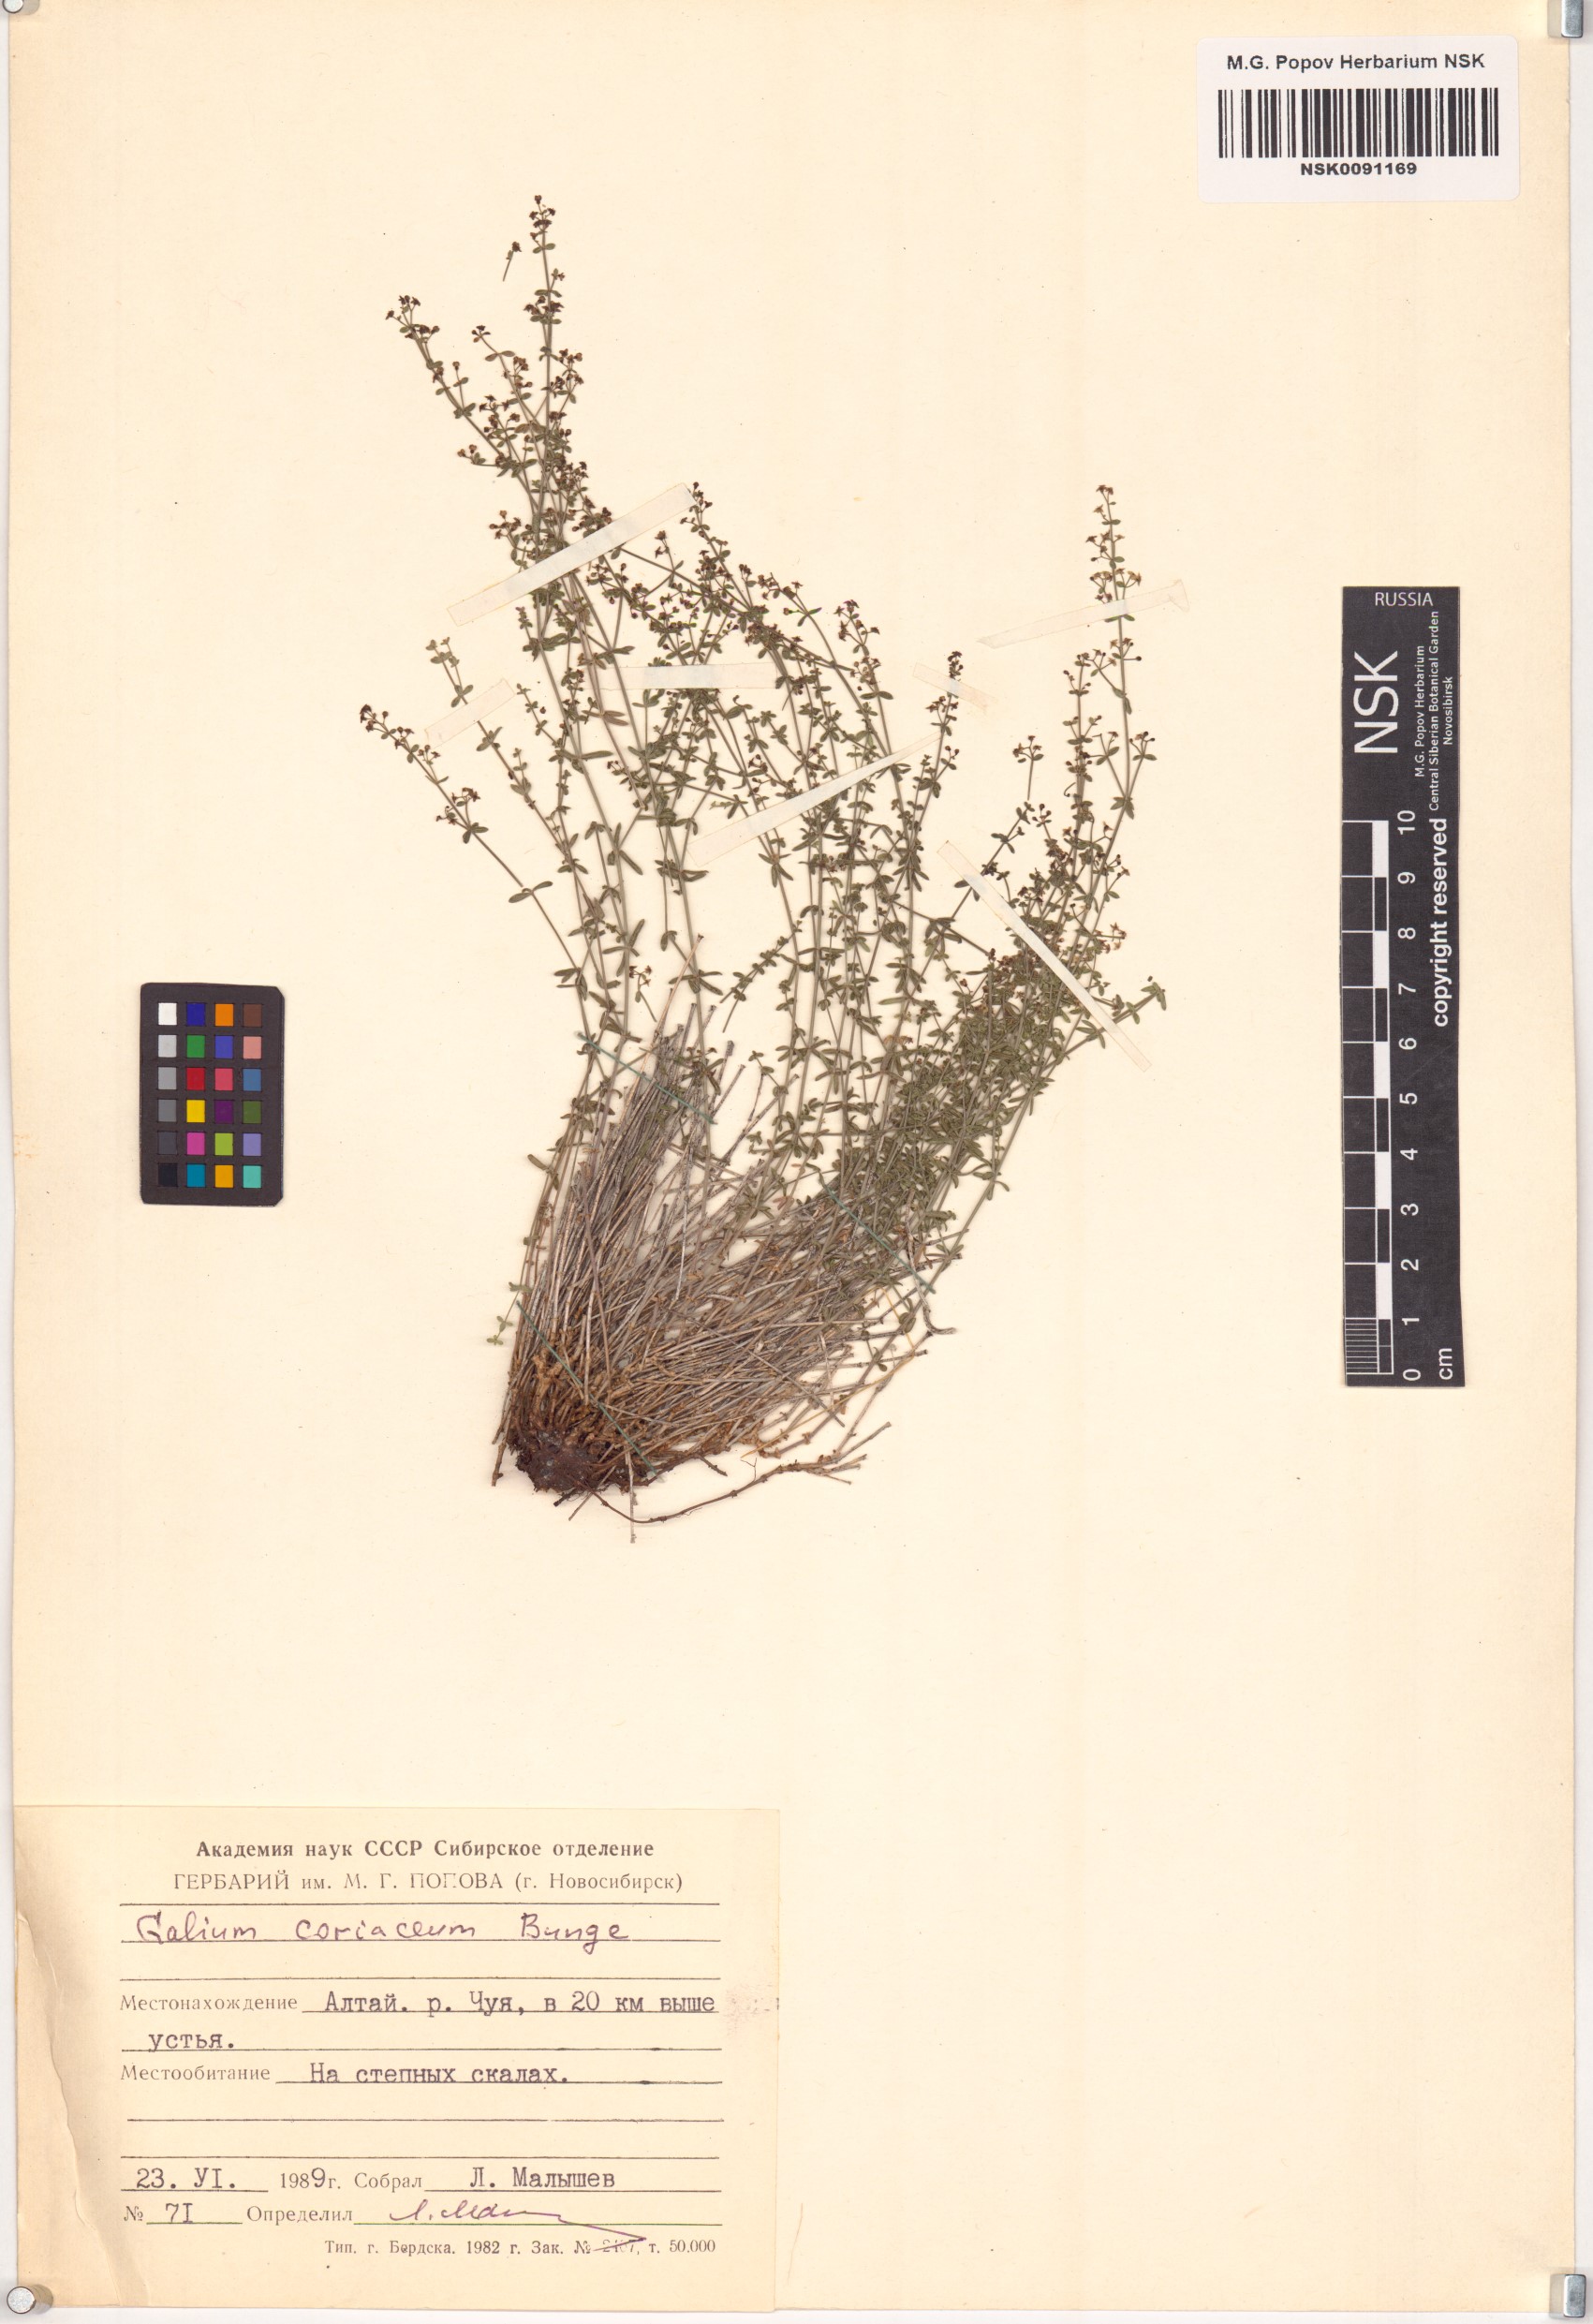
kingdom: Plantae
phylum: Tracheophyta
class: Magnoliopsida
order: Gentianales
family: Rubiaceae
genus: Galium
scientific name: Galium coriaceum
